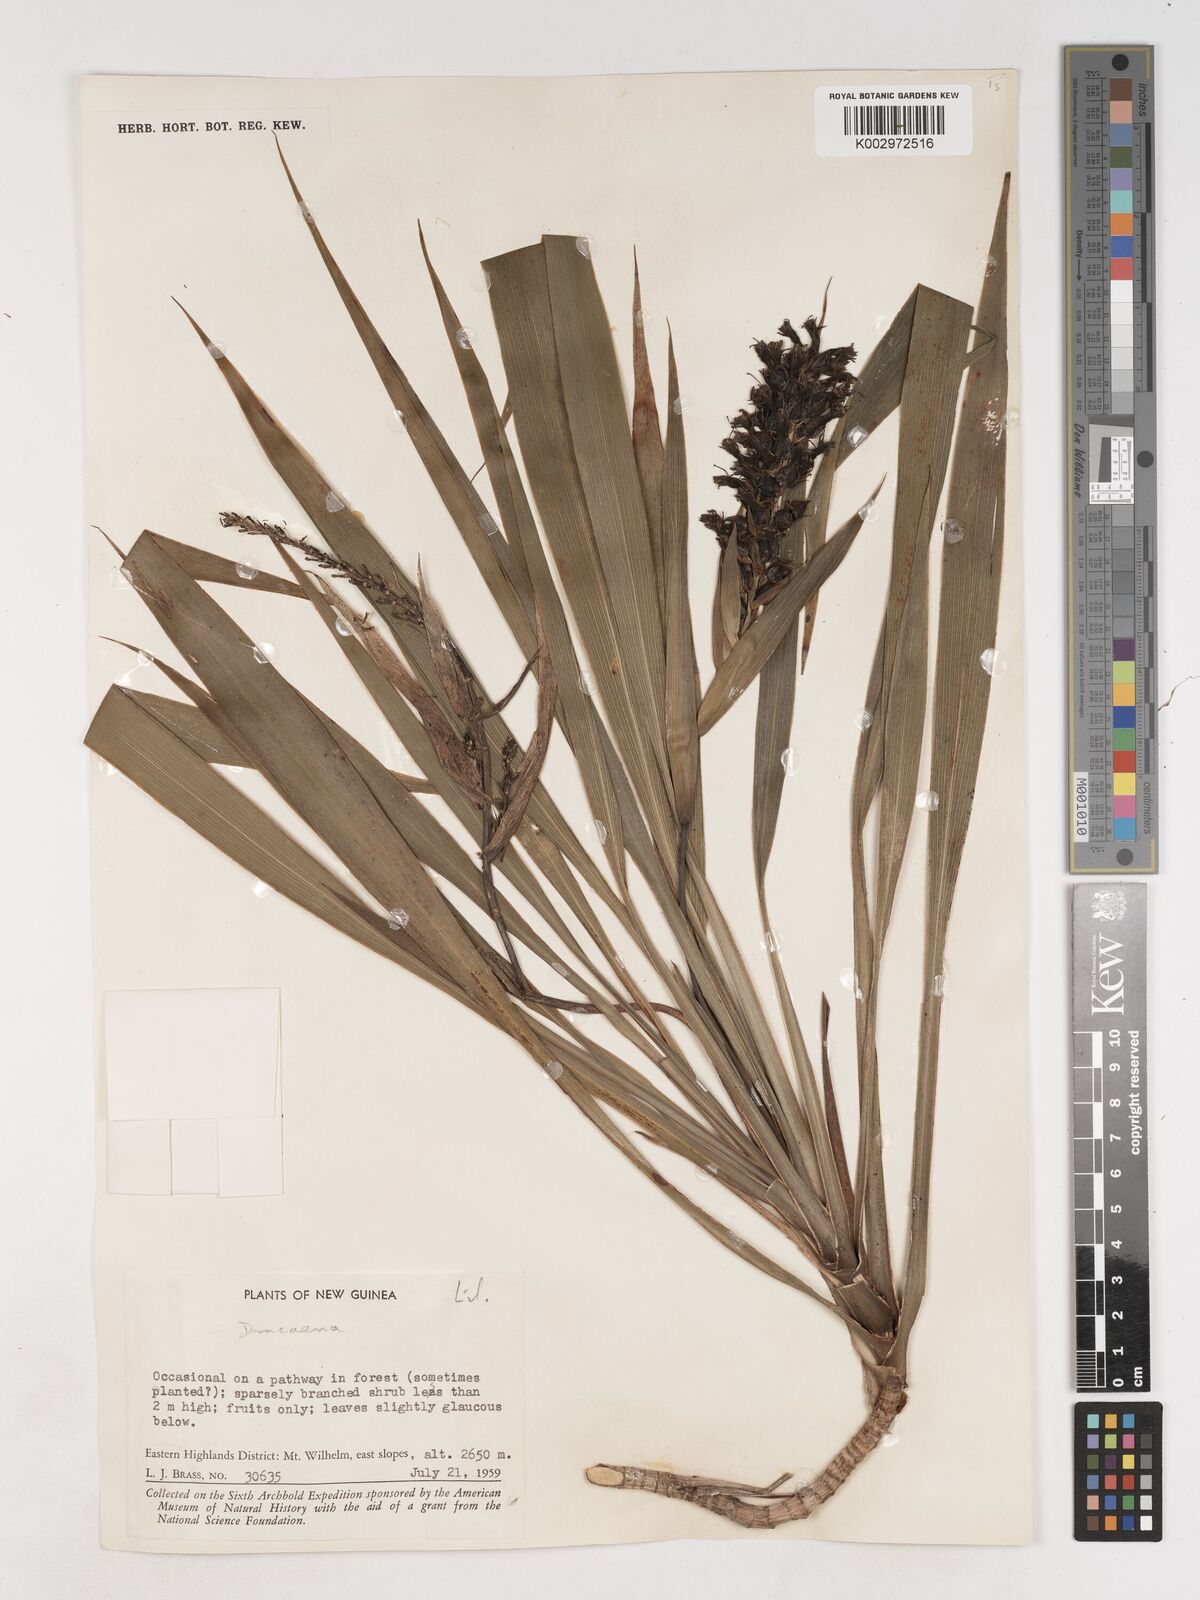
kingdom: Plantae
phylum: Tracheophyta
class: Liliopsida
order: Asparagales
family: Asparagaceae
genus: Cordyline
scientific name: Cordyline
